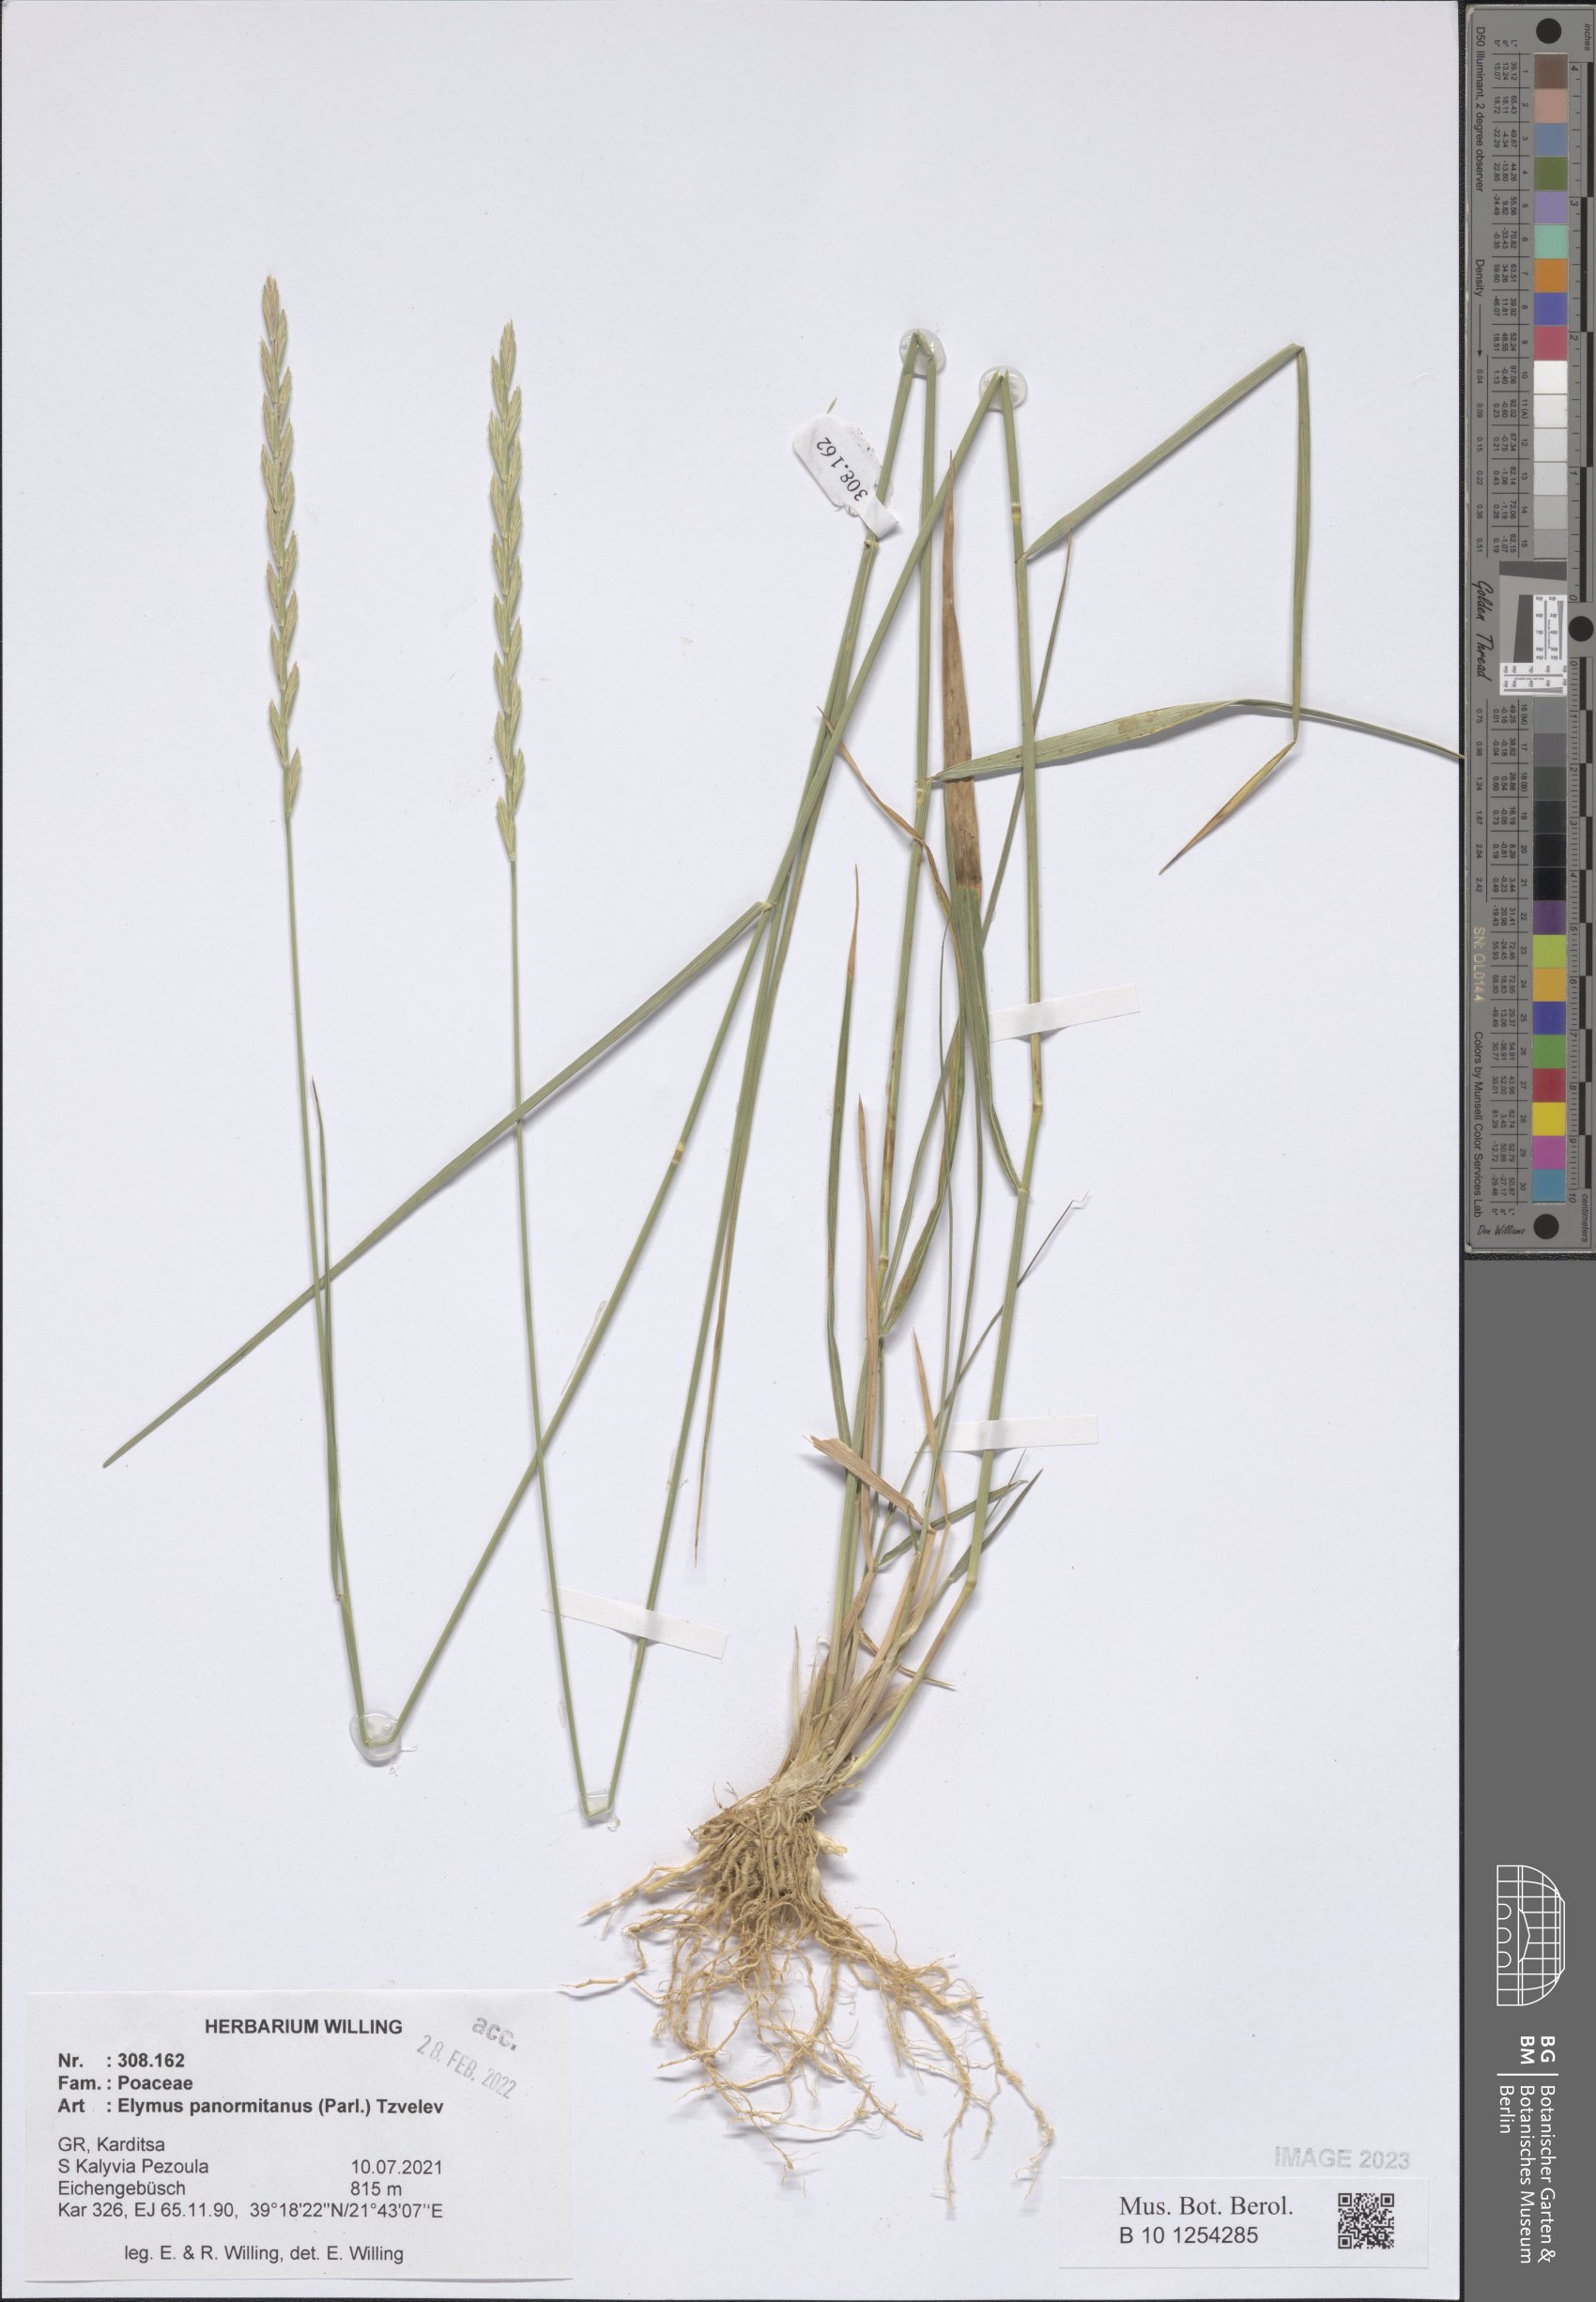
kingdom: Plantae
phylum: Tracheophyta
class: Liliopsida
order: Poales
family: Poaceae
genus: Elymus
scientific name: Elymus panormitanus
